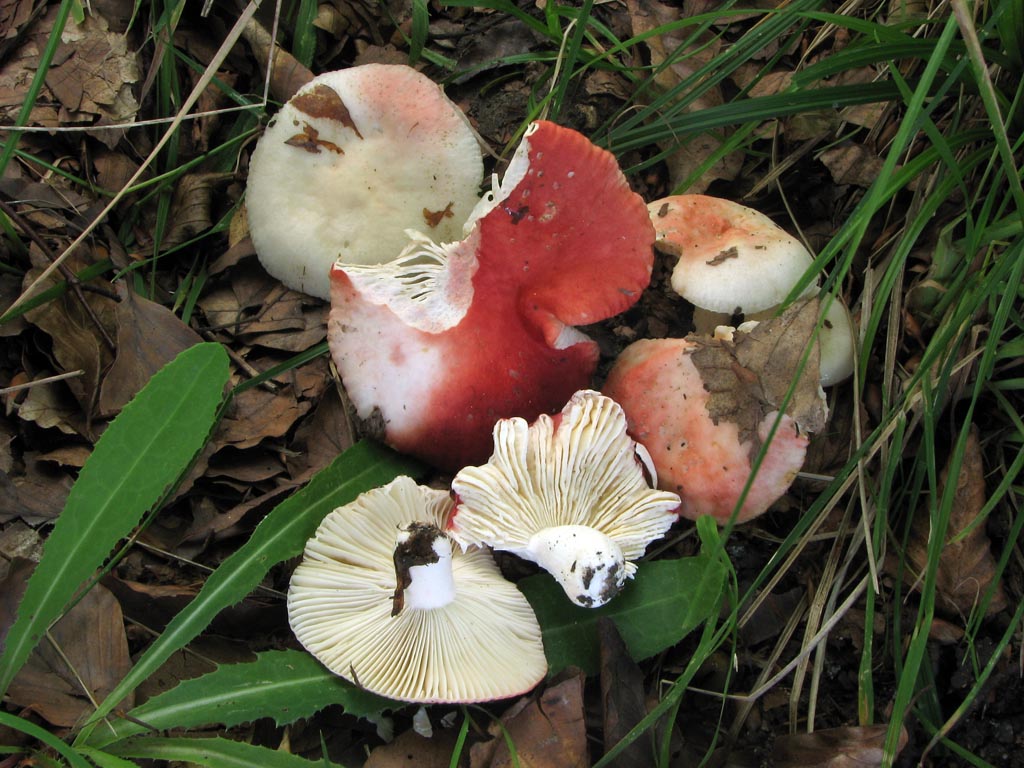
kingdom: Fungi
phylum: Basidiomycota
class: Agaricomycetes
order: Russulales
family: Russulaceae
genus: Russula
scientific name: Russula luteotacta
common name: gulplettet gift-skørhat
